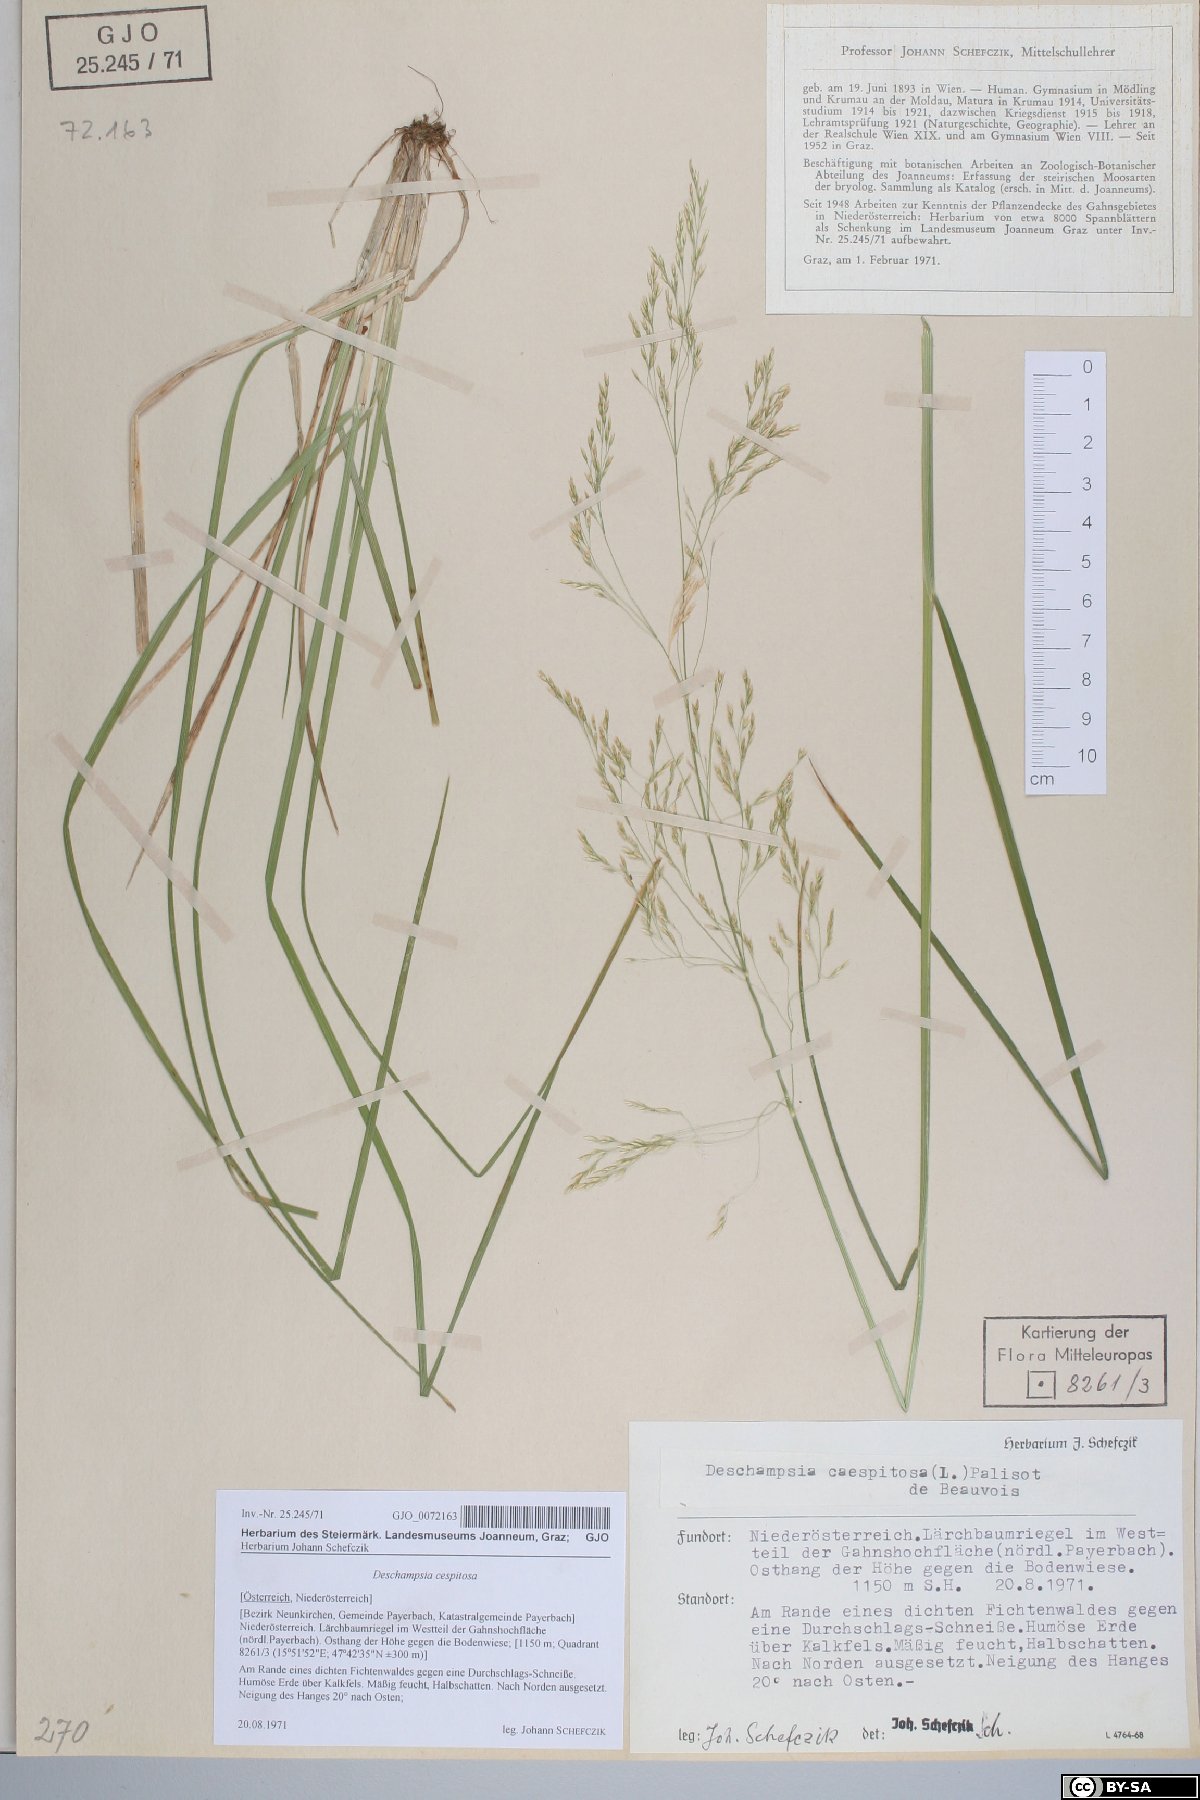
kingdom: Plantae
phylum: Tracheophyta
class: Liliopsida
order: Poales
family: Poaceae
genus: Deschampsia
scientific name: Deschampsia cespitosa
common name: Tufted hair-grass
